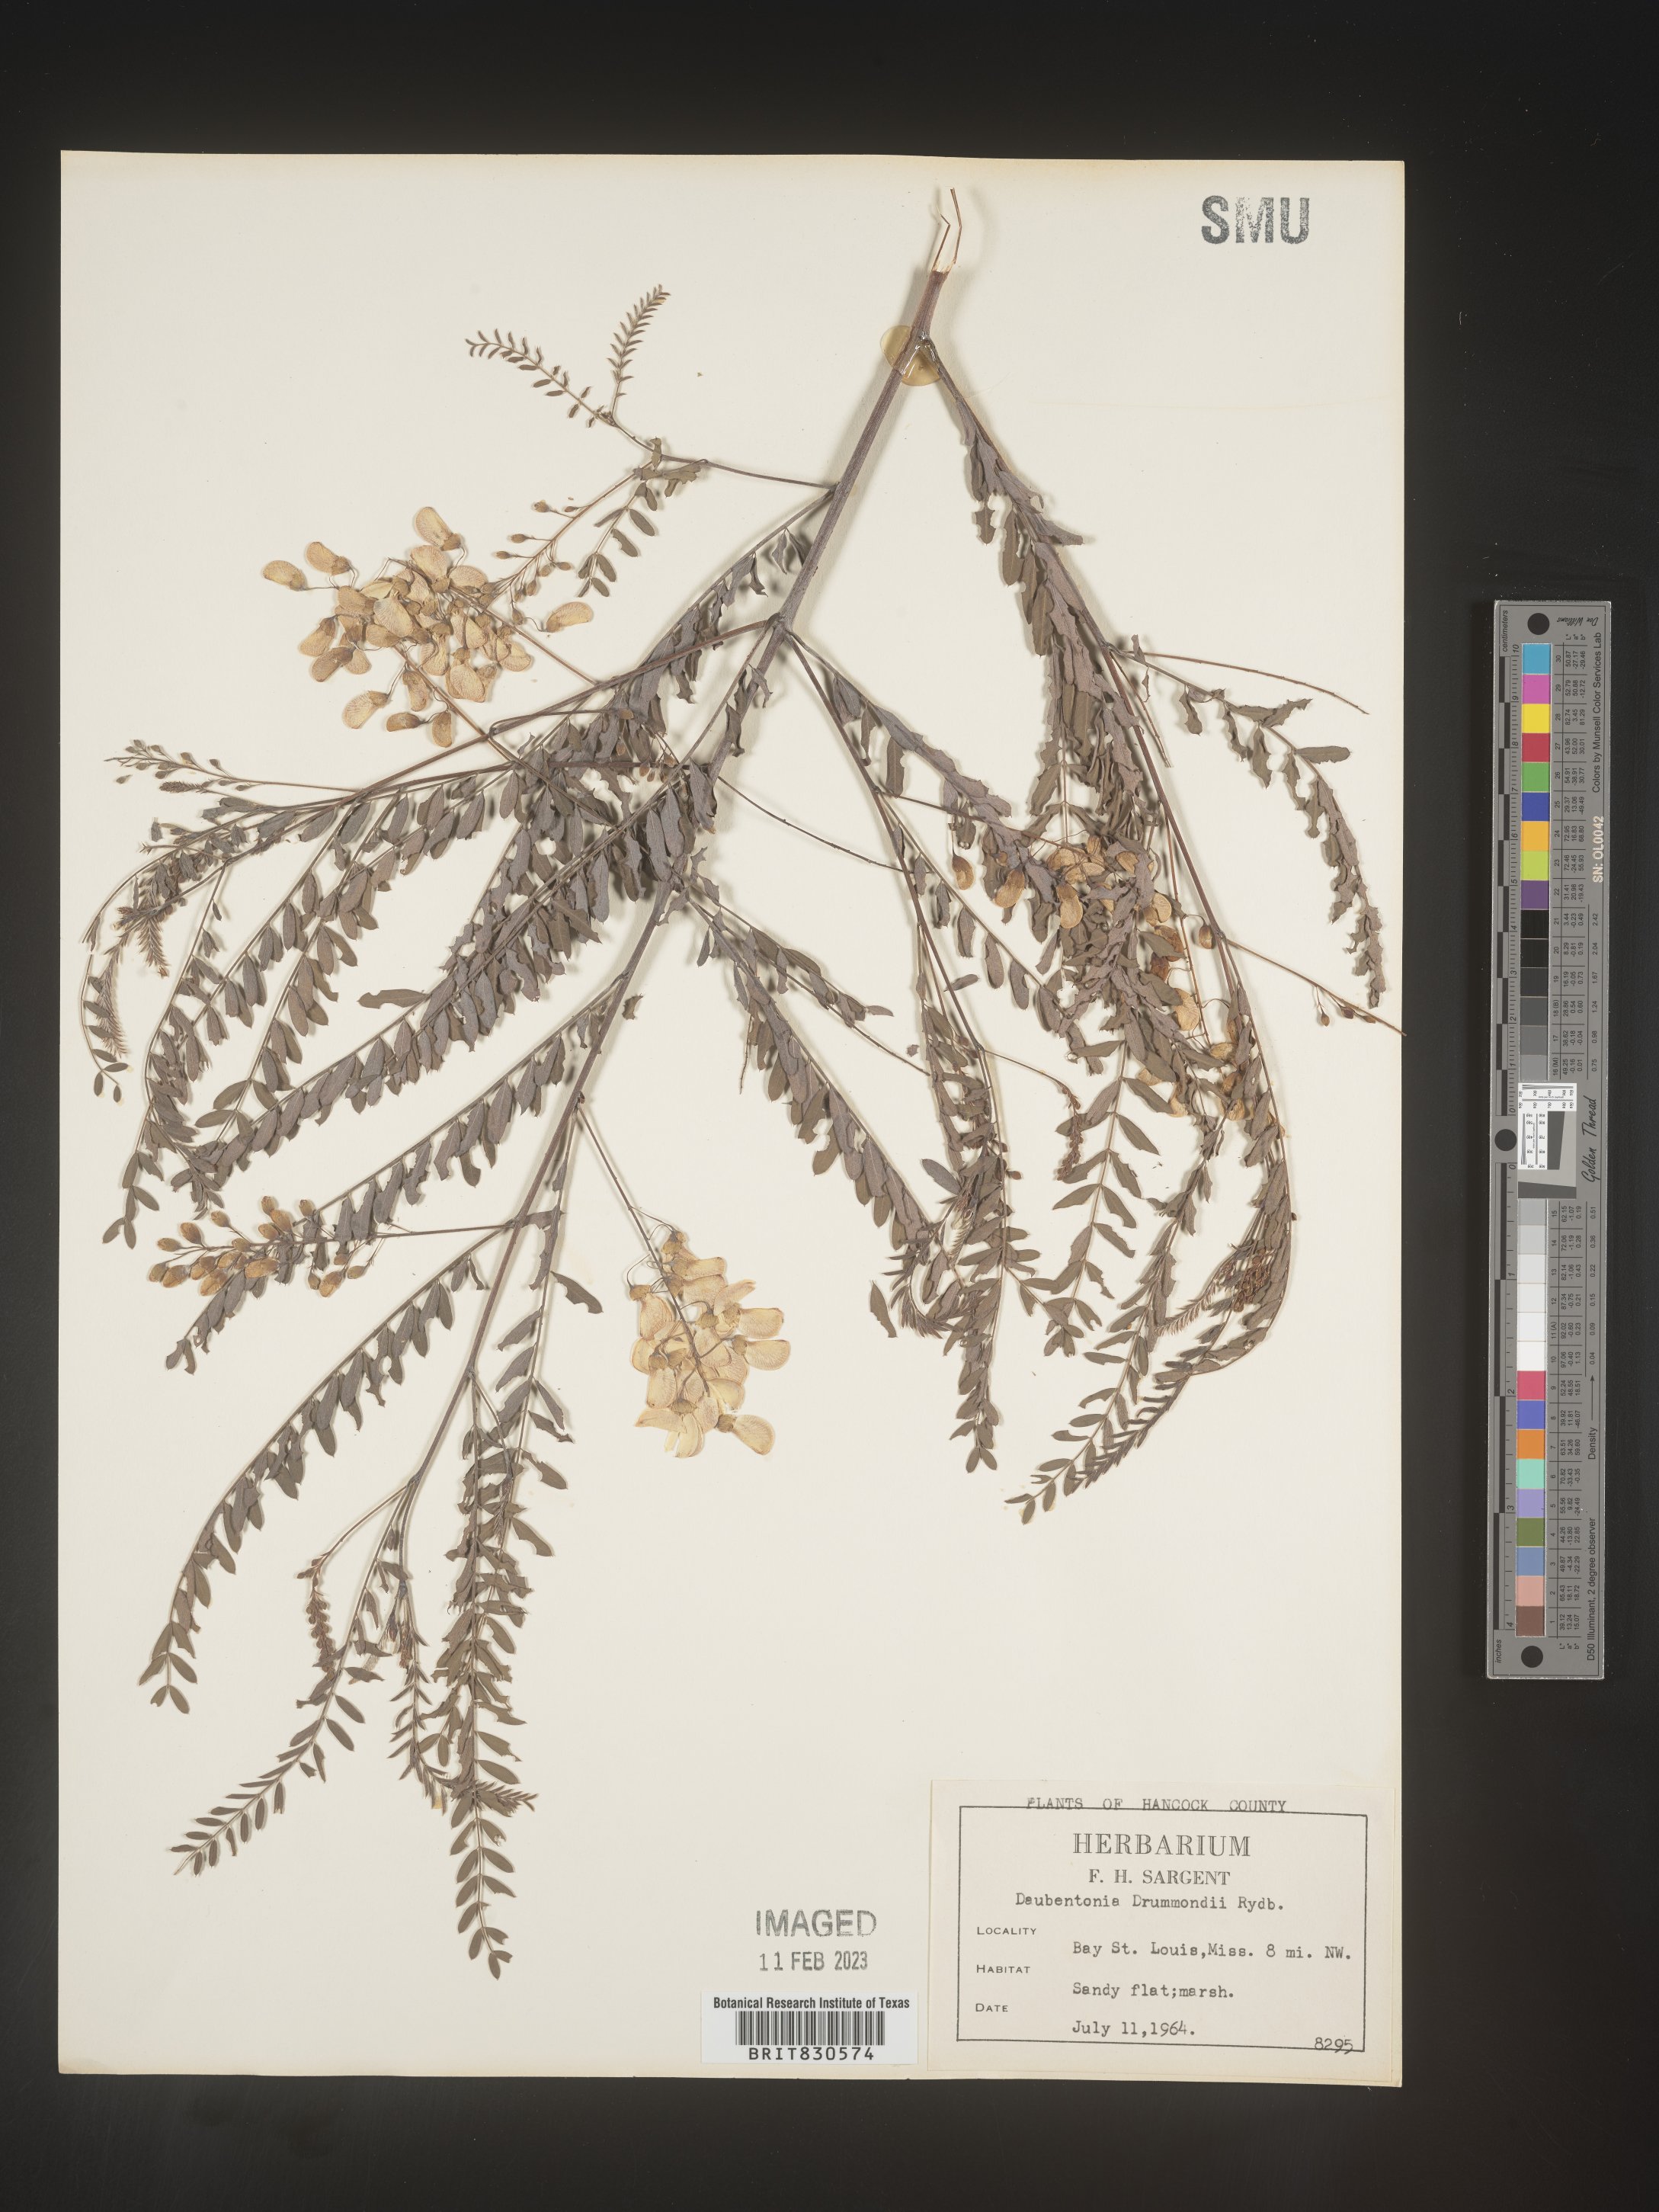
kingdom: Plantae
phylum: Tracheophyta
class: Magnoliopsida
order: Fabales
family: Fabaceae
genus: Sesbania
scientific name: Sesbania drummondii
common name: Poison-bean
